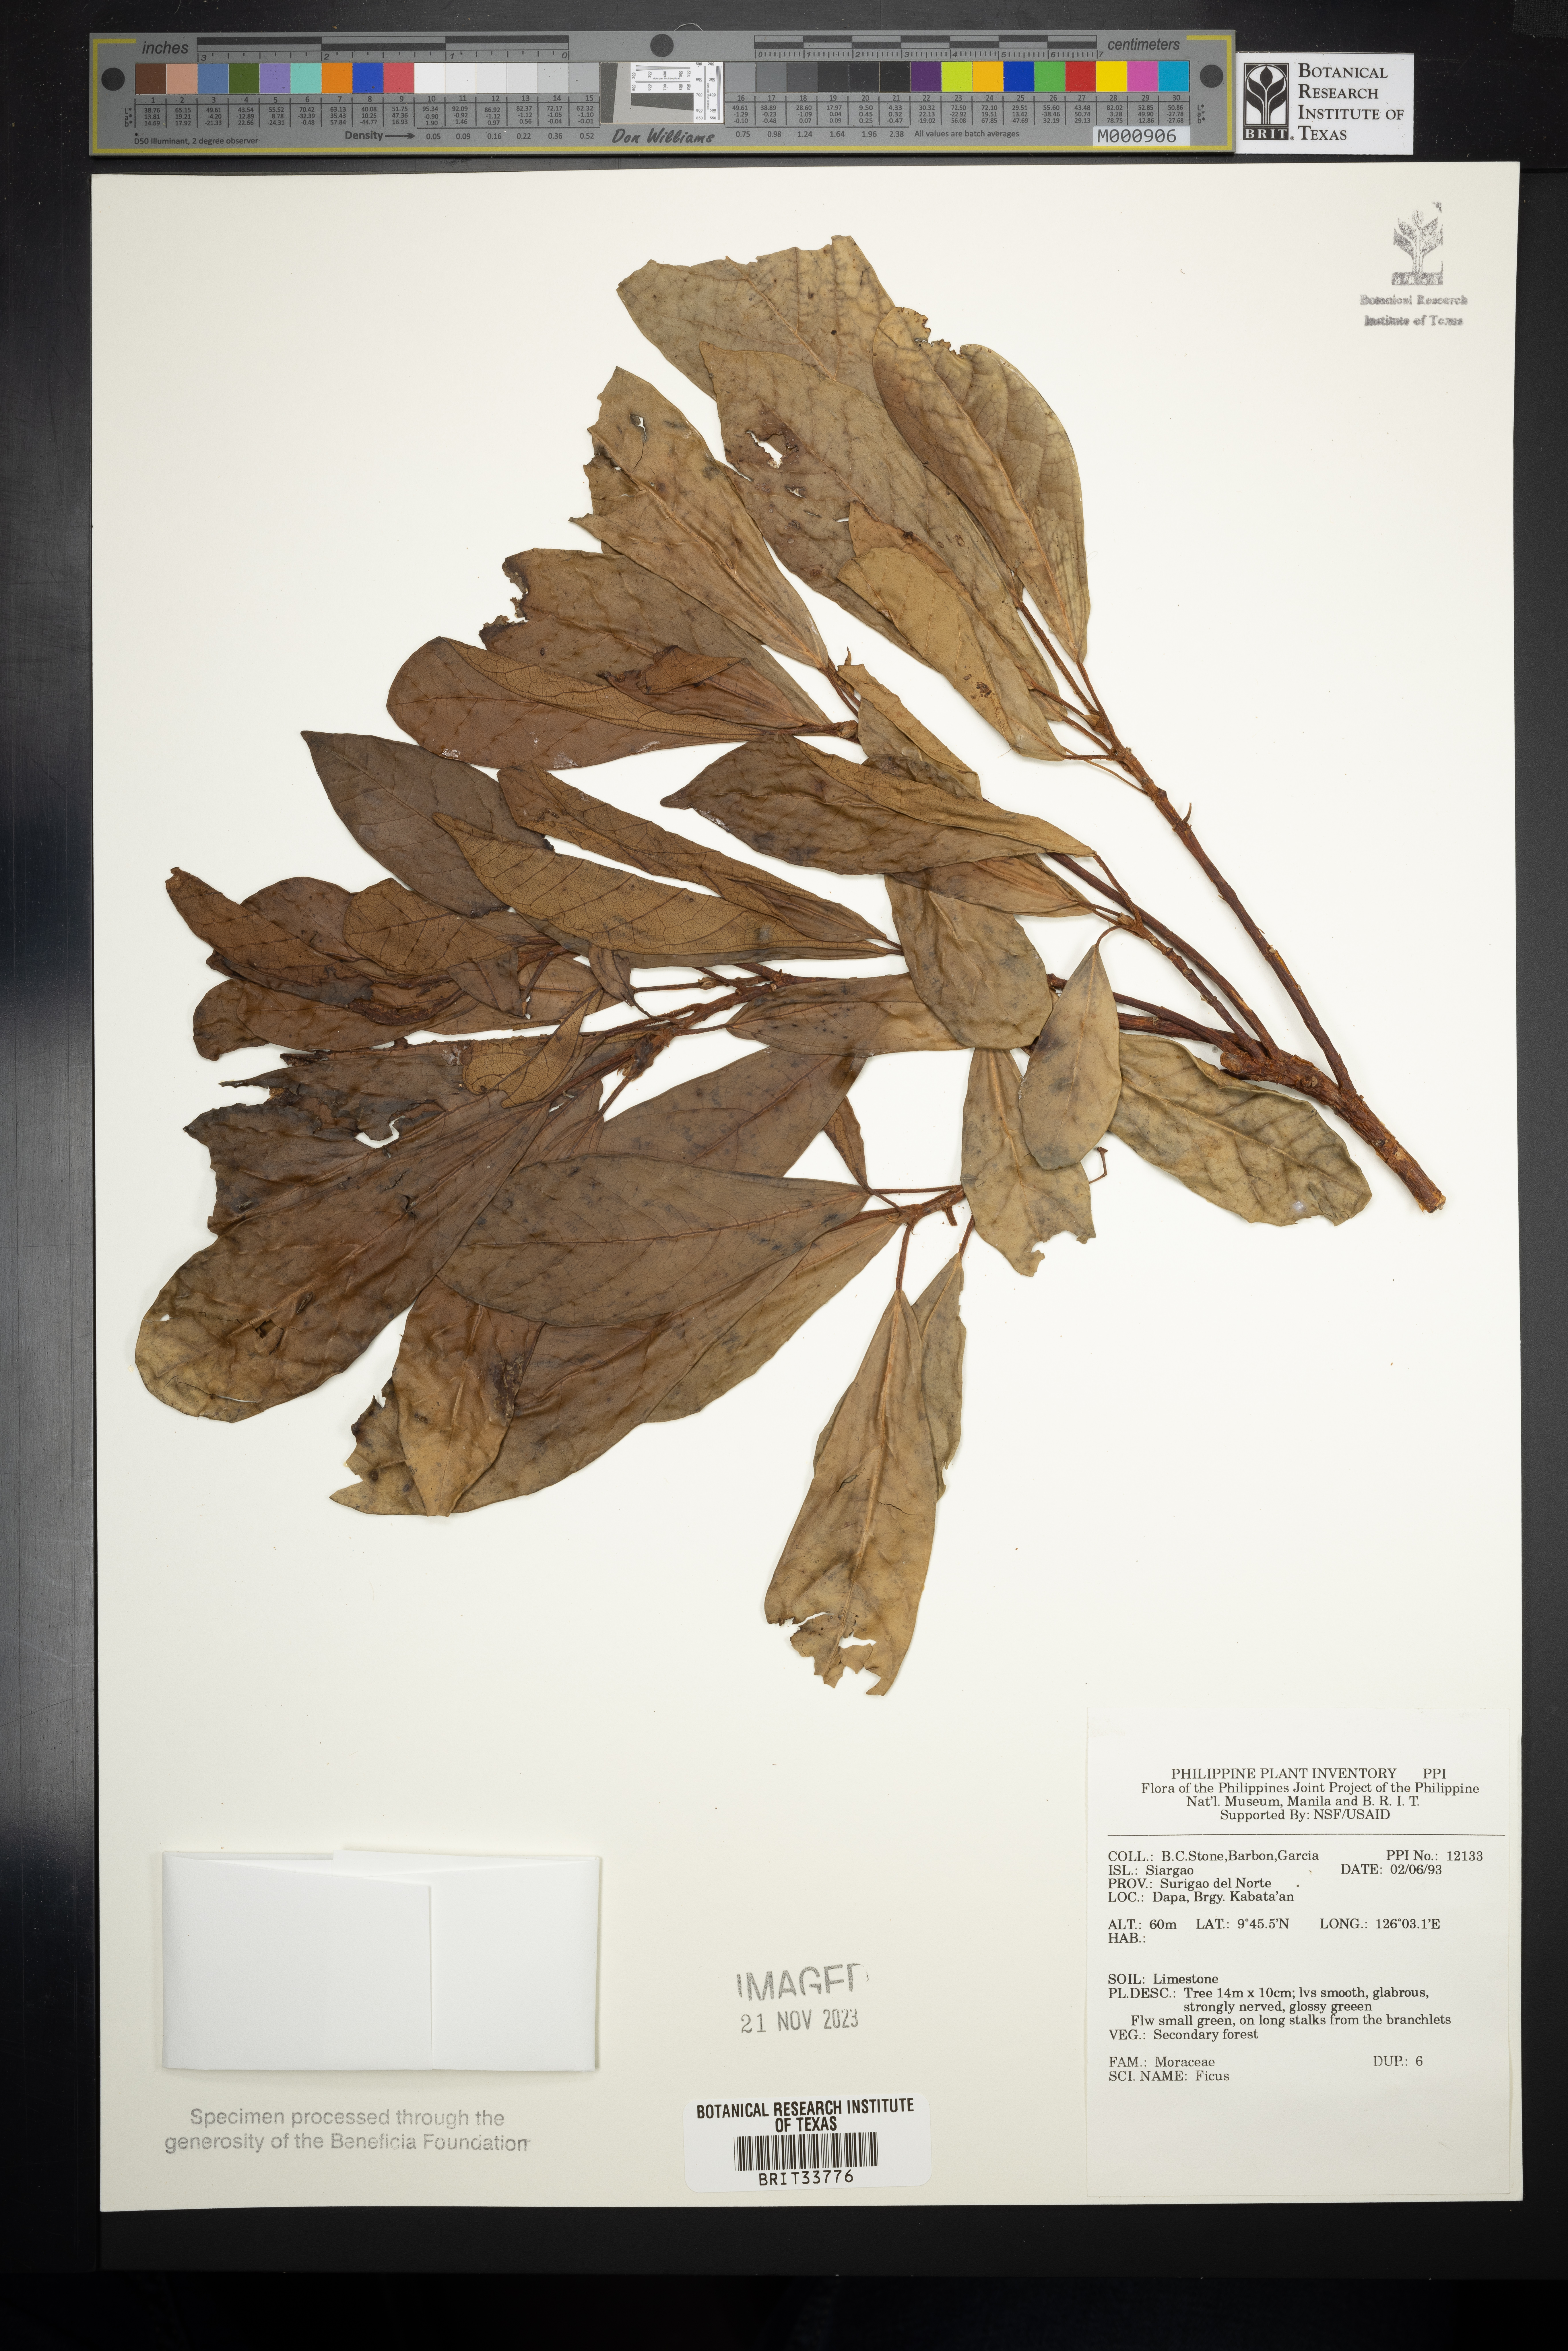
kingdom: Plantae
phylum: Tracheophyta
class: Magnoliopsida
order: Rosales
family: Moraceae
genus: Ficus
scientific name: Ficus
